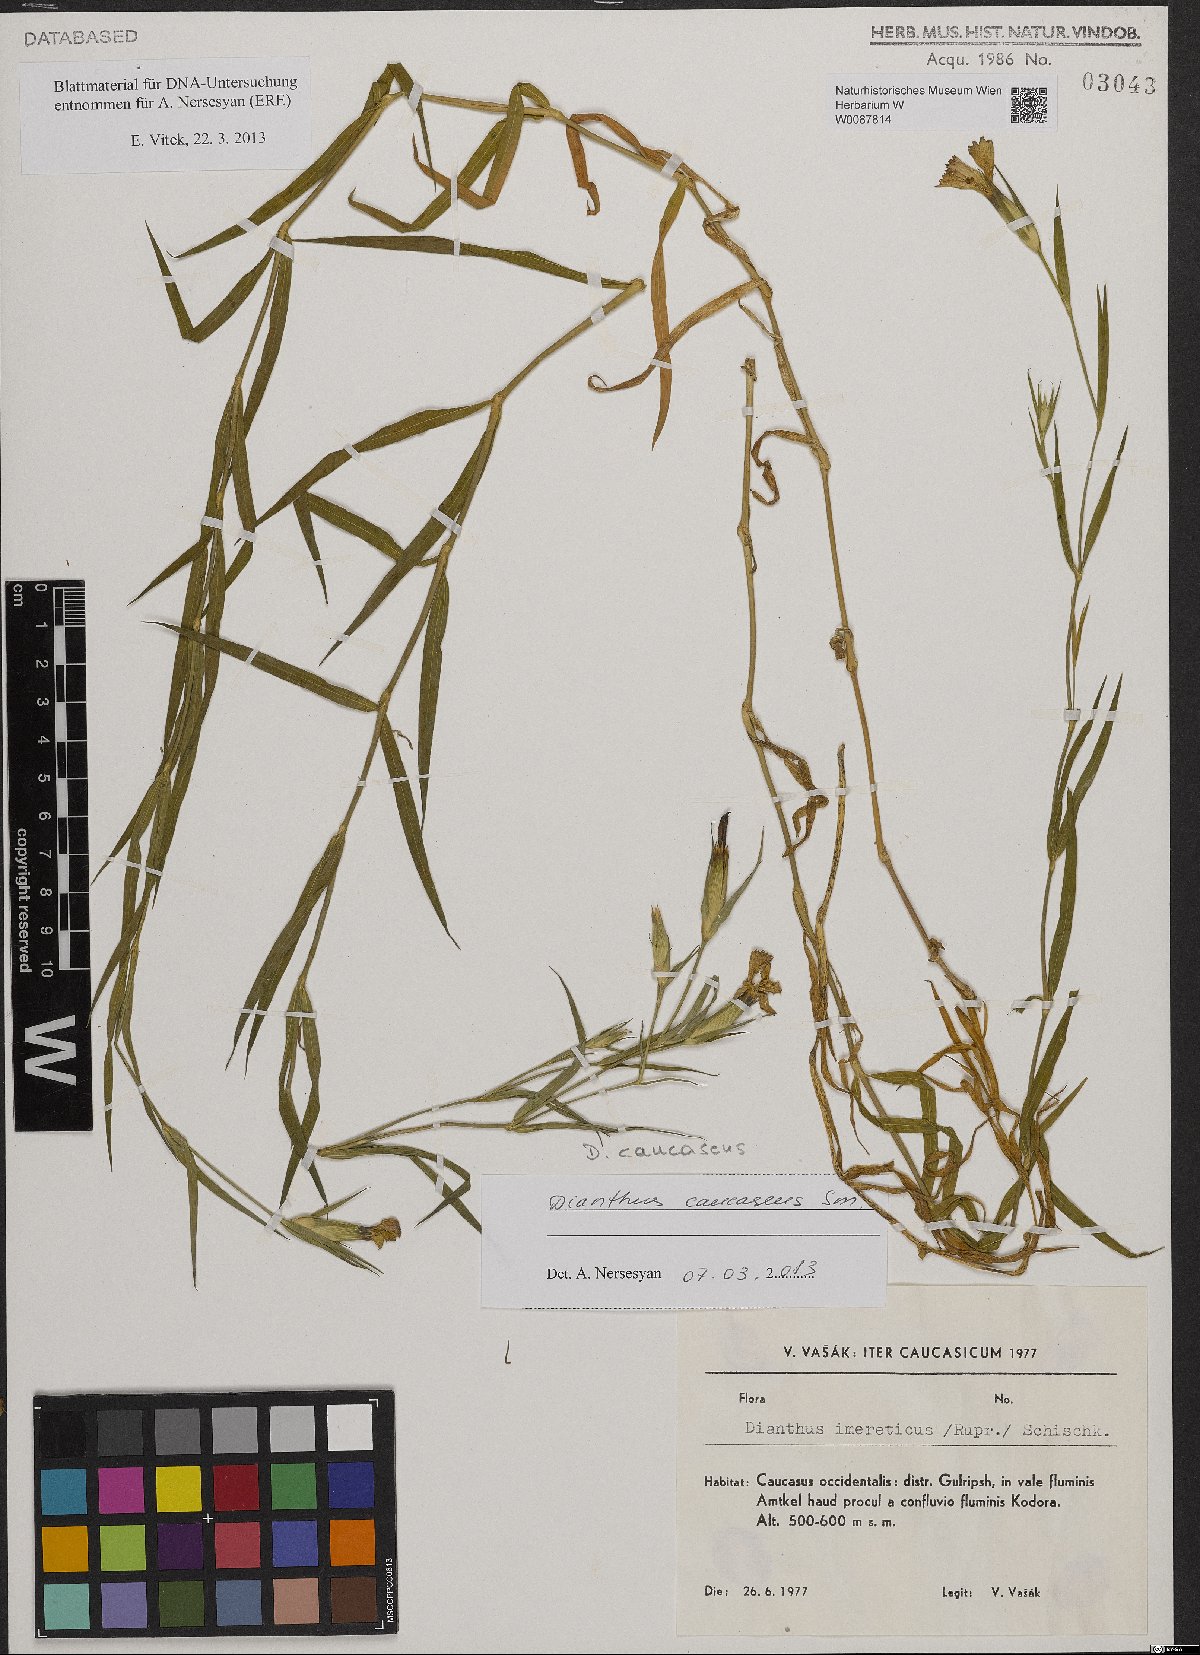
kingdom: Plantae
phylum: Tracheophyta
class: Magnoliopsida
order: Caryophyllales
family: Caryophyllaceae
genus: Dianthus
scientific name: Dianthus caucaseus
